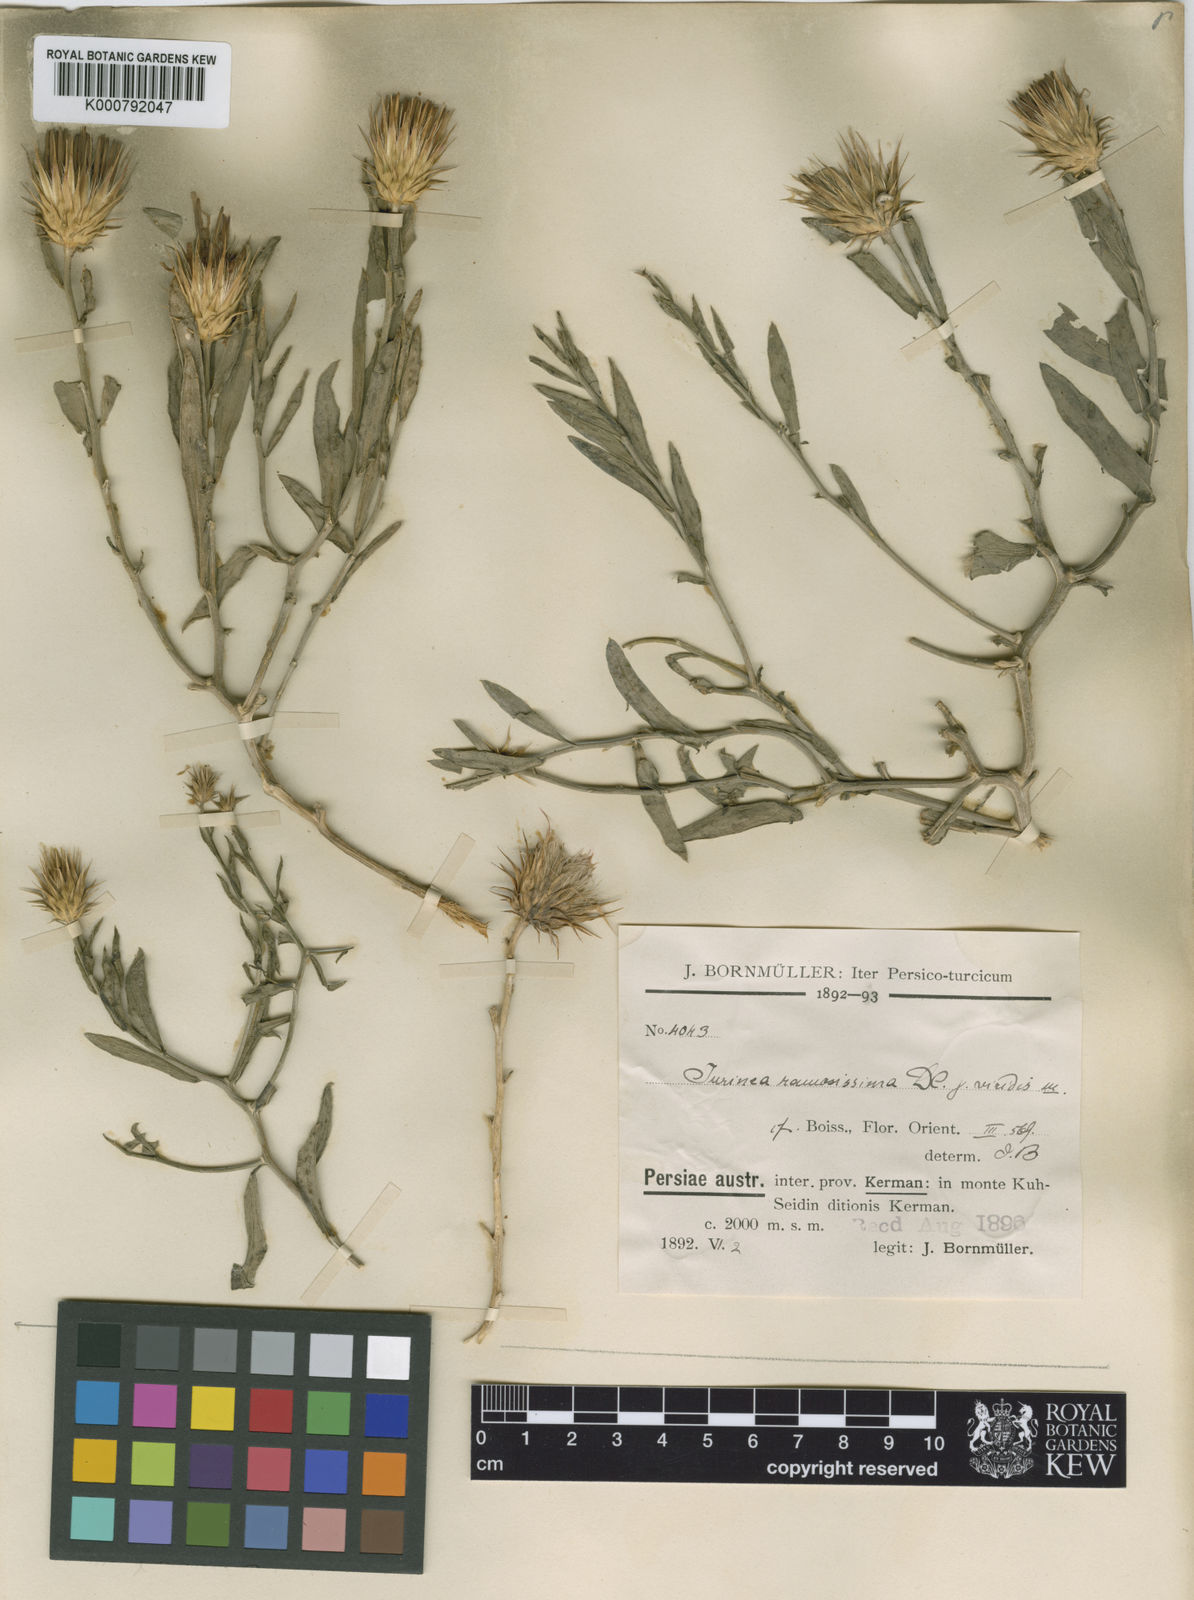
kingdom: Plantae
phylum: Tracheophyta
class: Magnoliopsida
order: Asterales
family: Asteraceae
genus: Jurinea
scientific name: Jurinea ramosissima
